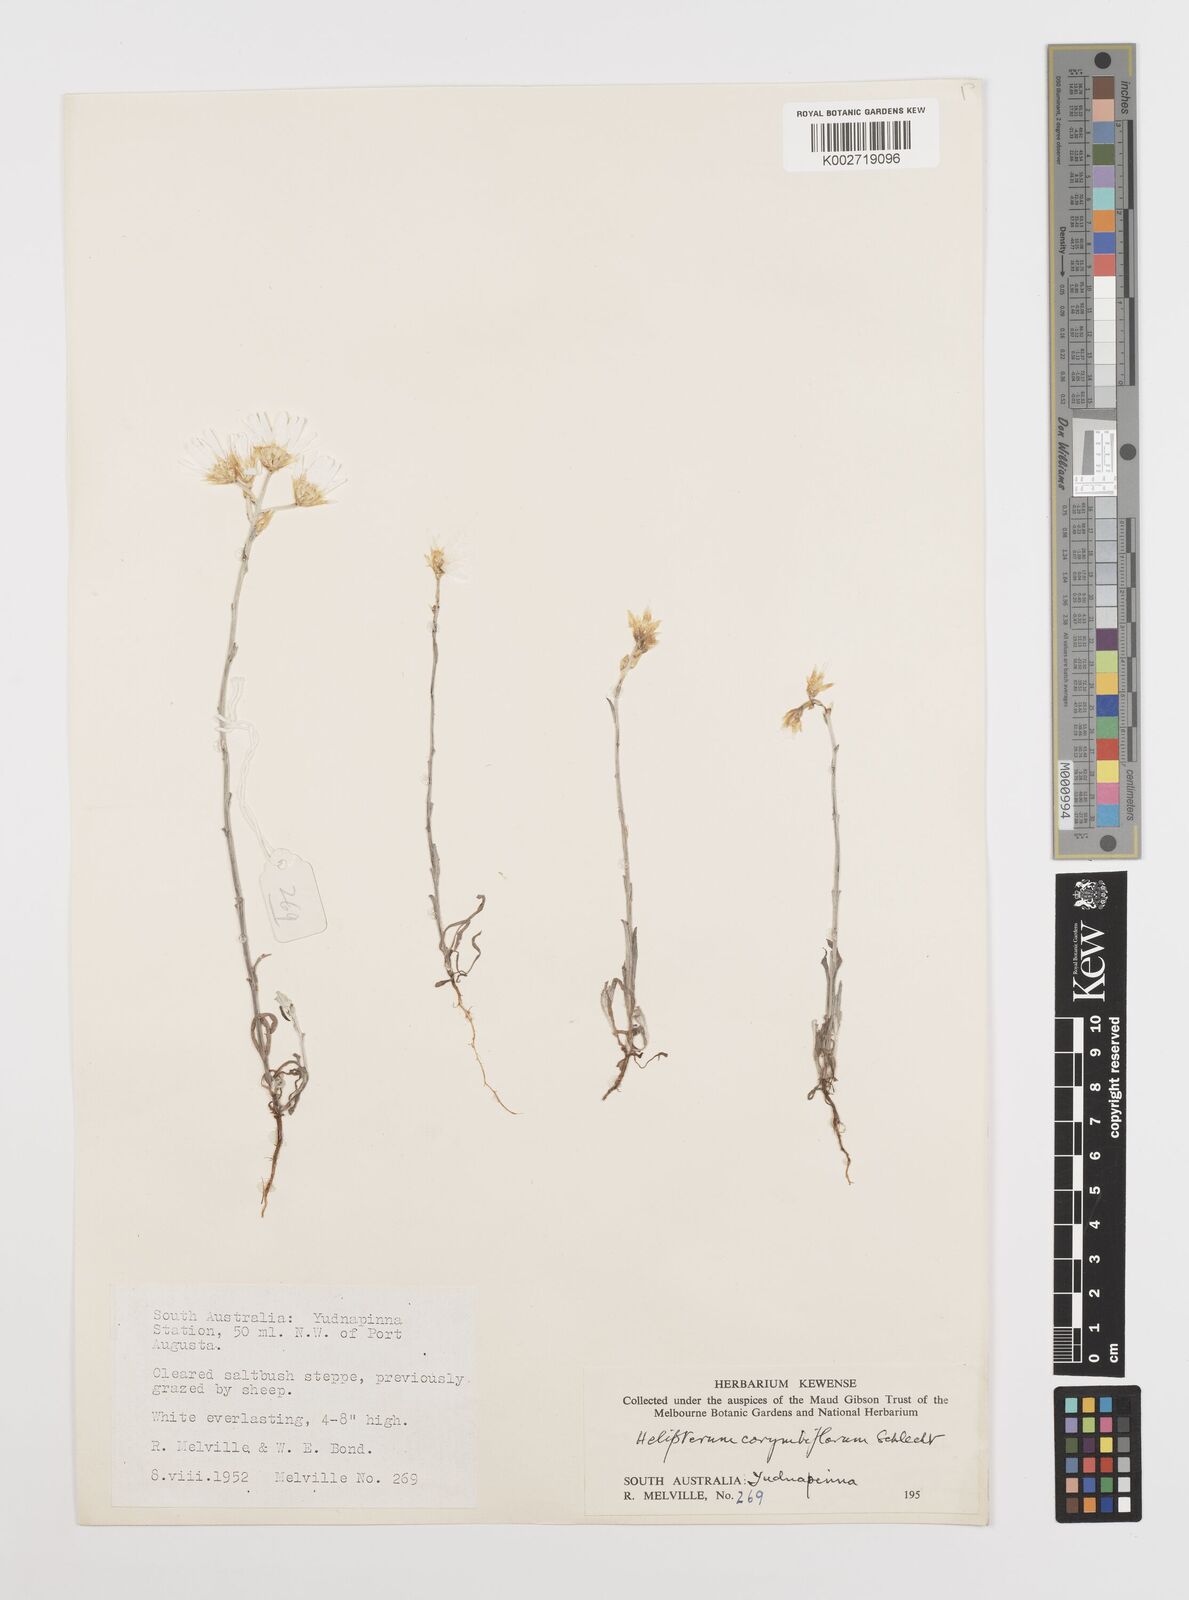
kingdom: Plantae
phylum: Tracheophyta
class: Magnoliopsida
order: Asterales
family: Asteraceae
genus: Rhodanthe
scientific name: Rhodanthe corymbiflora
